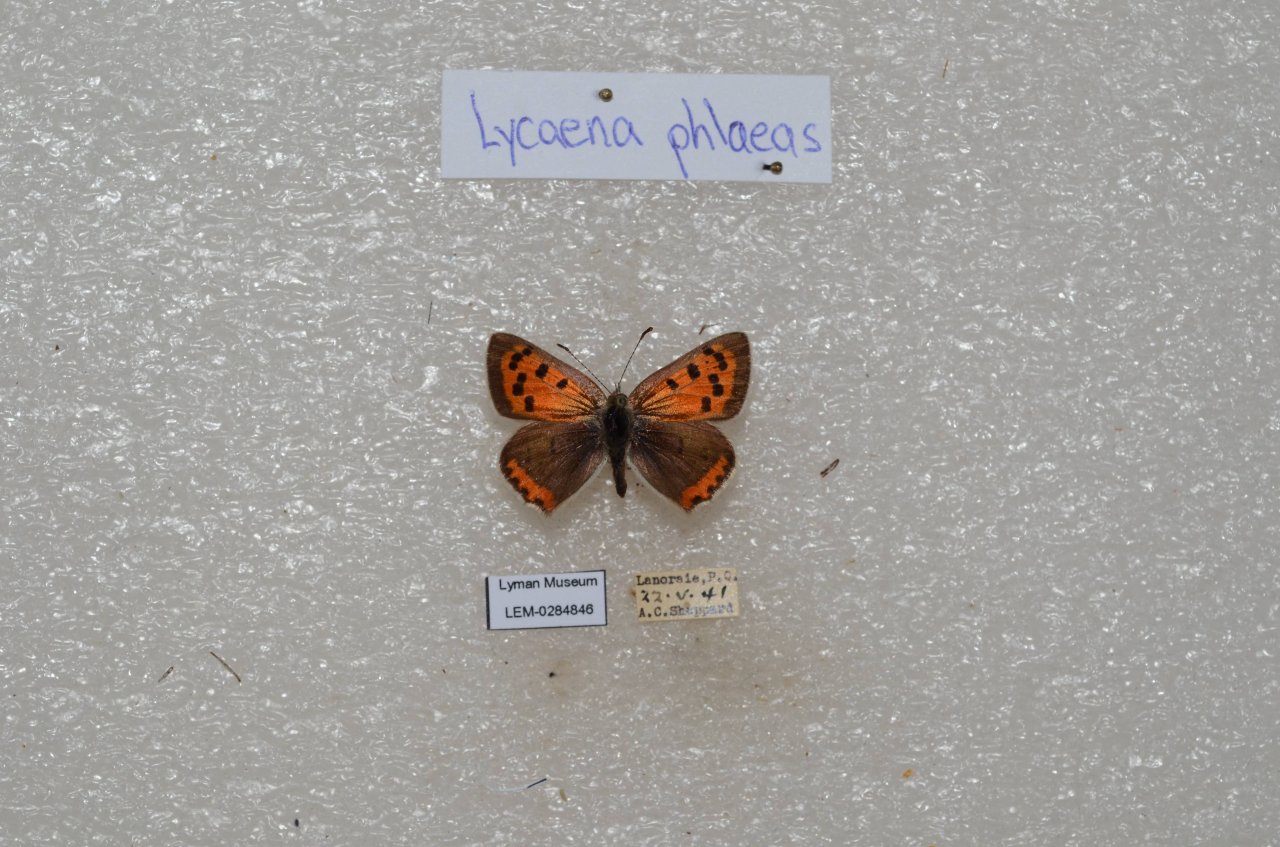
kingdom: Animalia
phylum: Arthropoda
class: Insecta
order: Lepidoptera
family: Lycaenidae
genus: Lycaena
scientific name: Lycaena phlaeas
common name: American Copper
